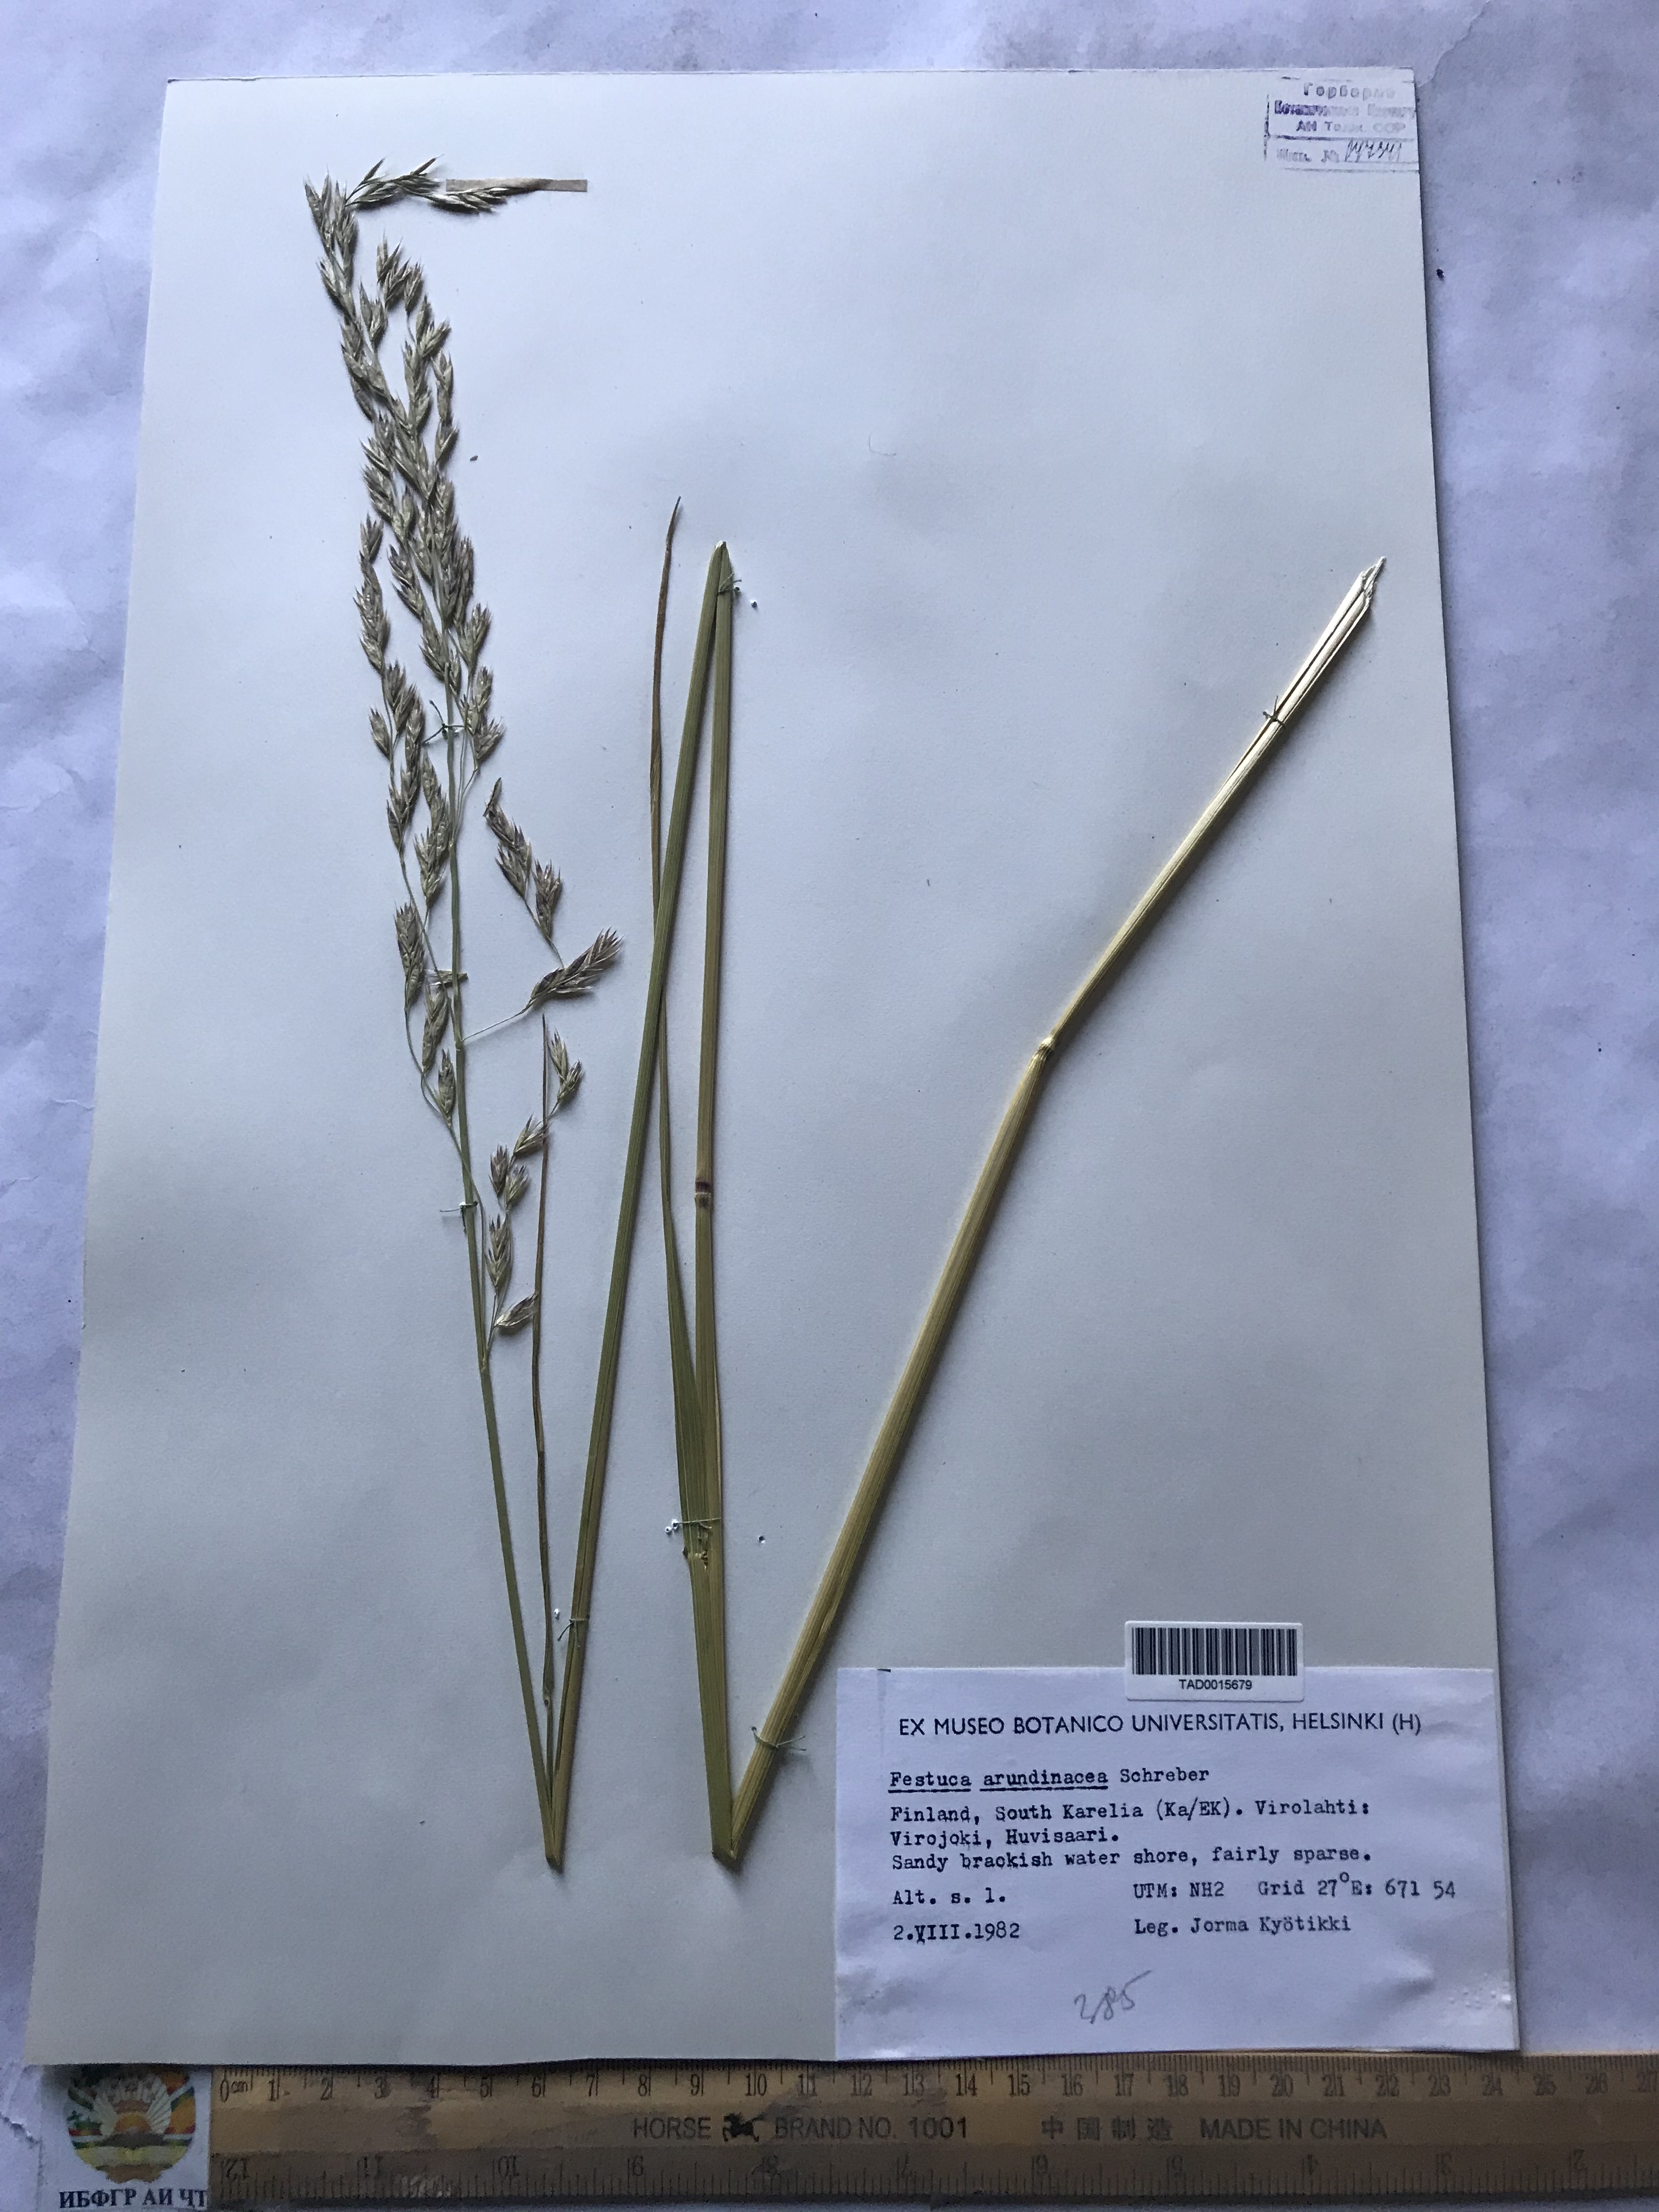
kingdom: Plantae
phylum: Tracheophyta
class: Liliopsida
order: Poales
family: Poaceae
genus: Lolium
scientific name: Lolium arundinaceum
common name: Reed fescue
